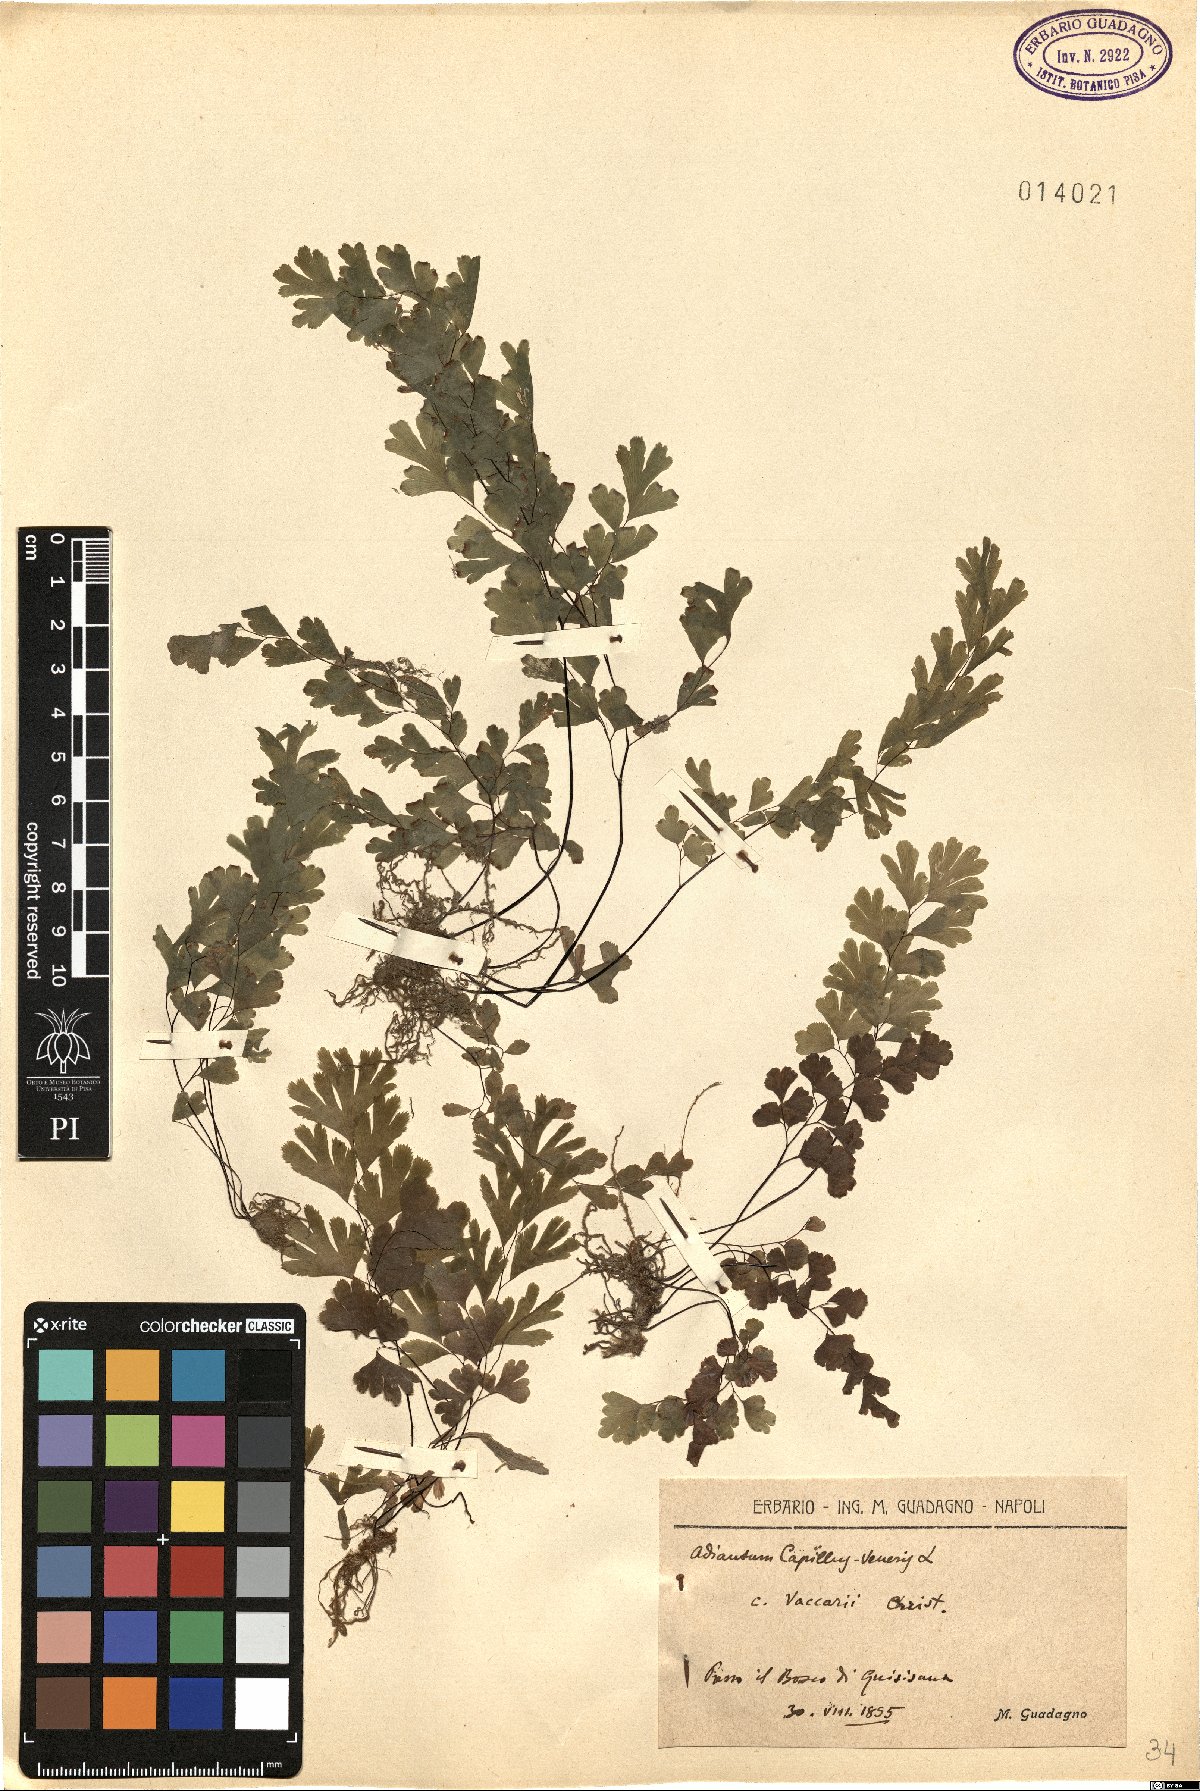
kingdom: Plantae
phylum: Tracheophyta
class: Polypodiopsida
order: Polypodiales
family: Pteridaceae
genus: Adiantum
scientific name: Adiantum capillus-veneris
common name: Maidenhair fern
